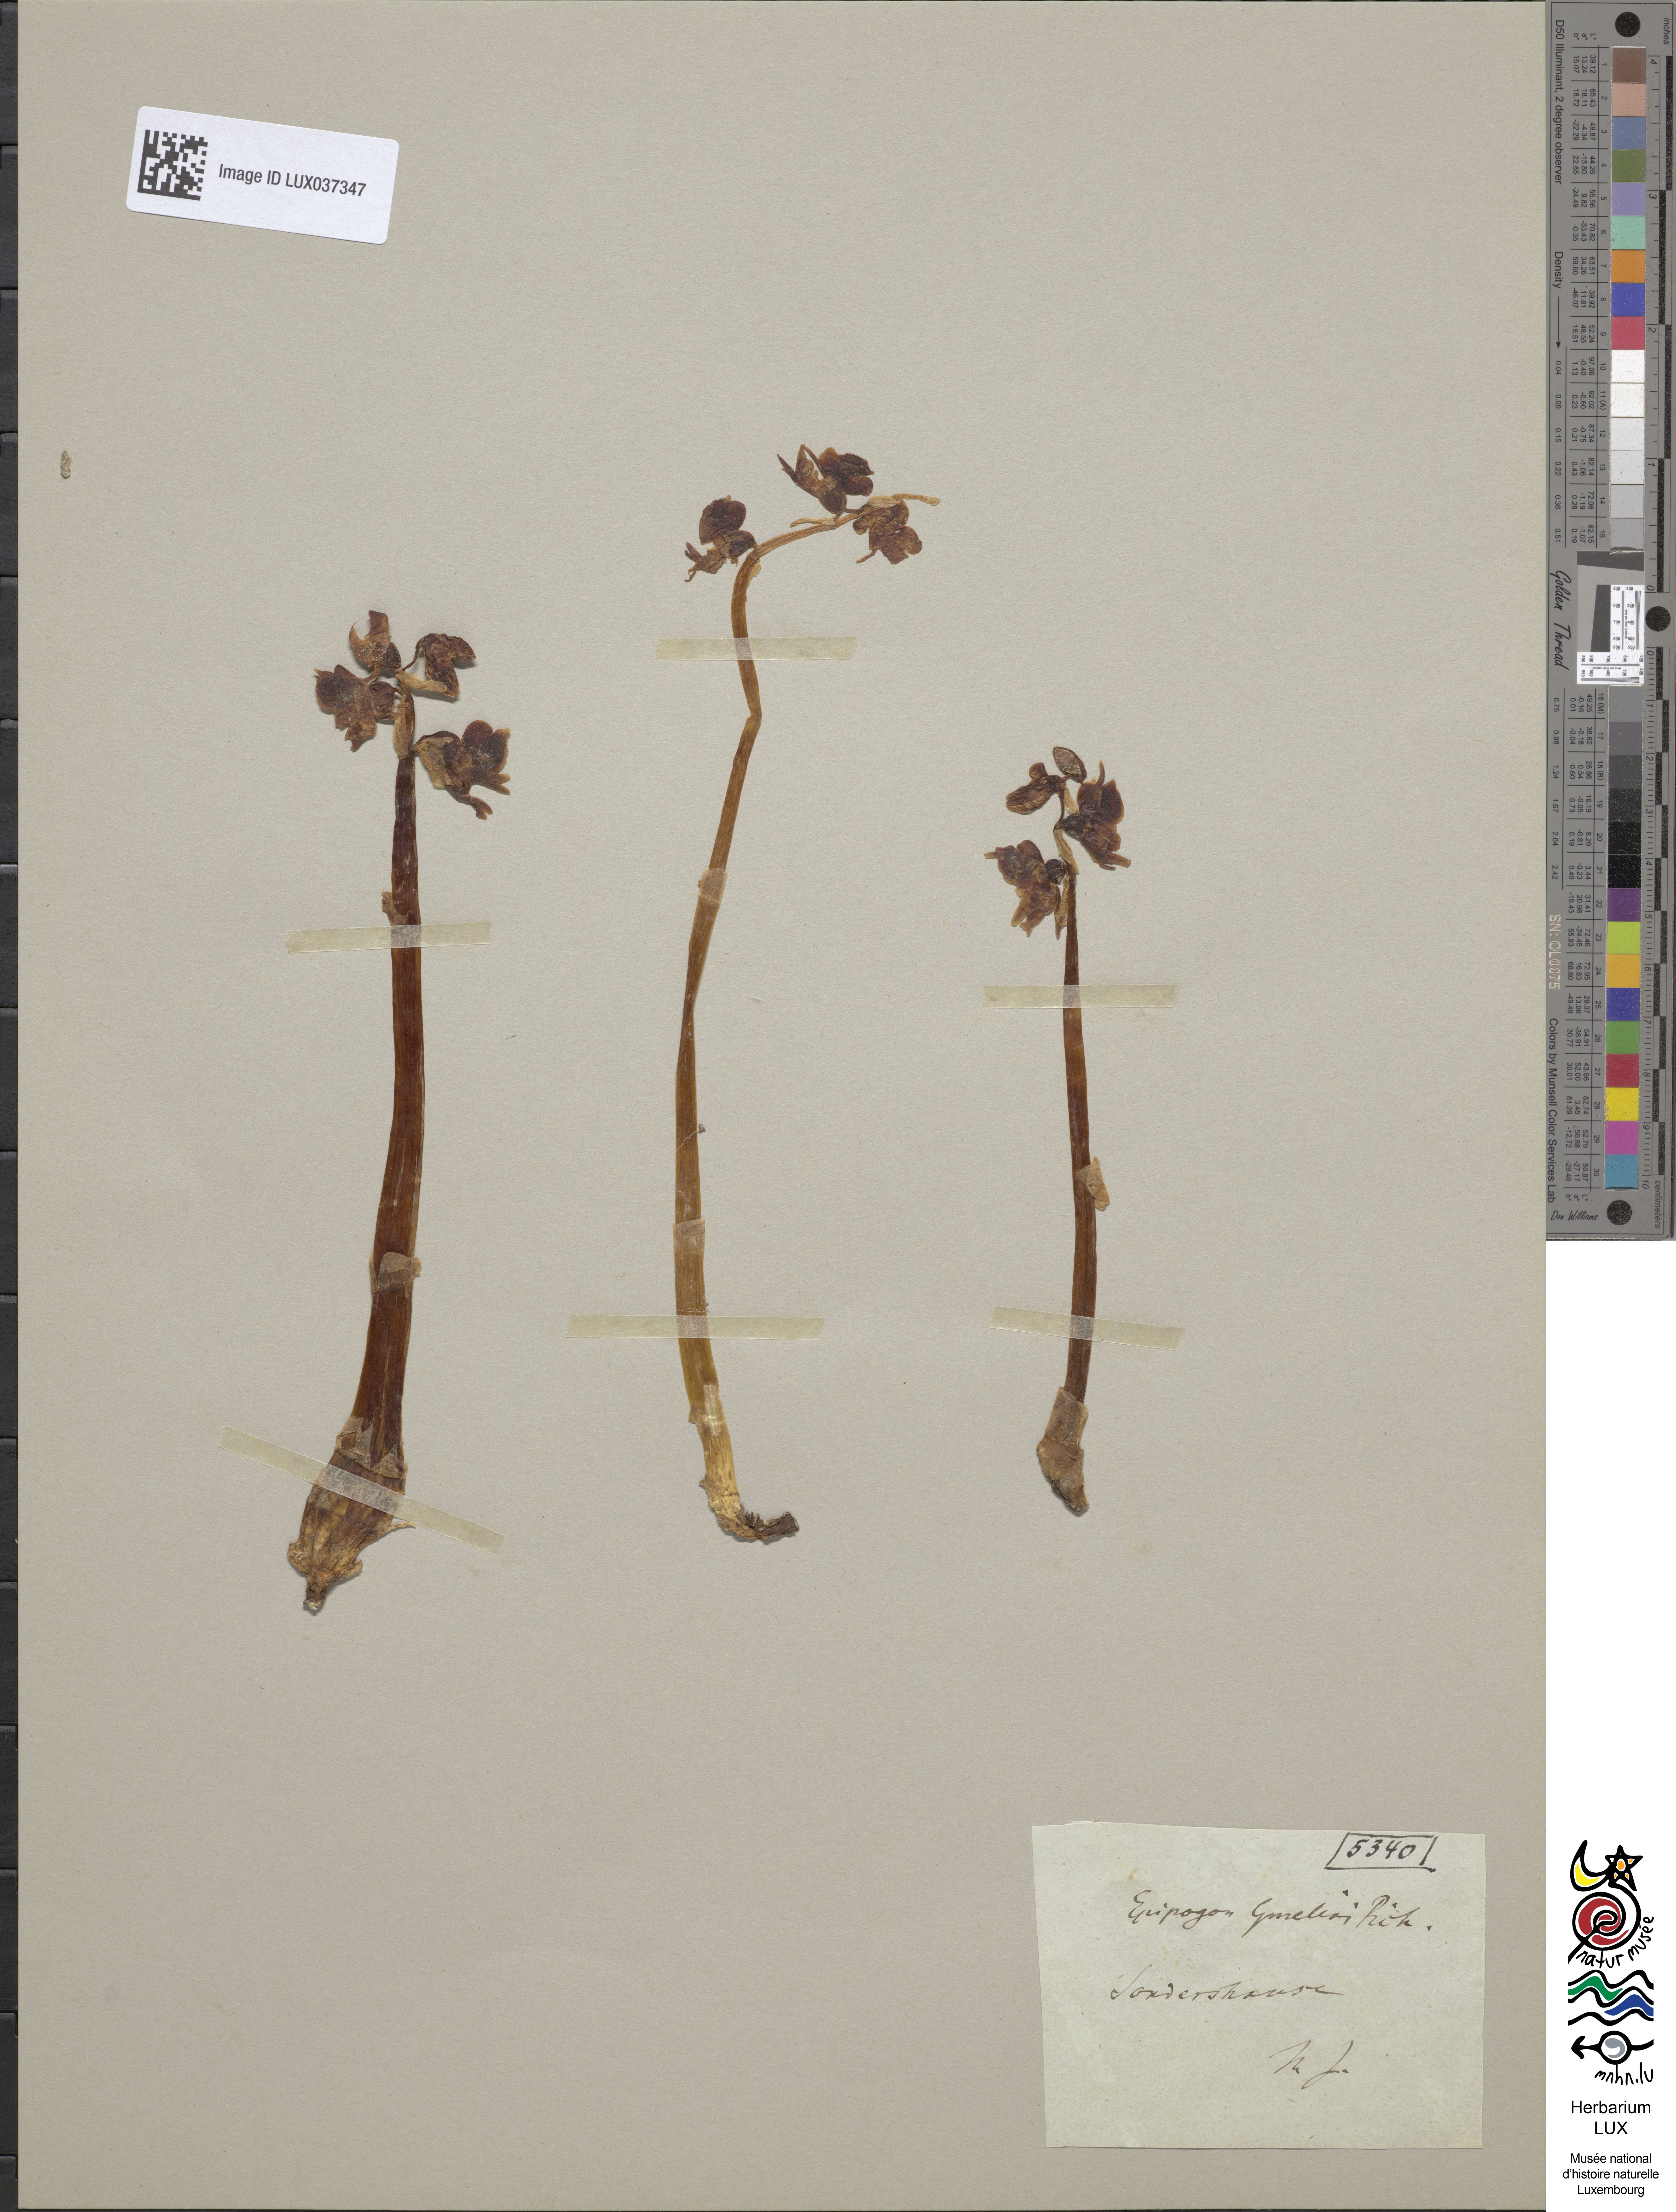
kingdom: Plantae
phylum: Tracheophyta
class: Liliopsida
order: Asparagales
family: Orchidaceae
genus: Epipogium
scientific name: Epipogium aphyllum
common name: Ghost orchid
